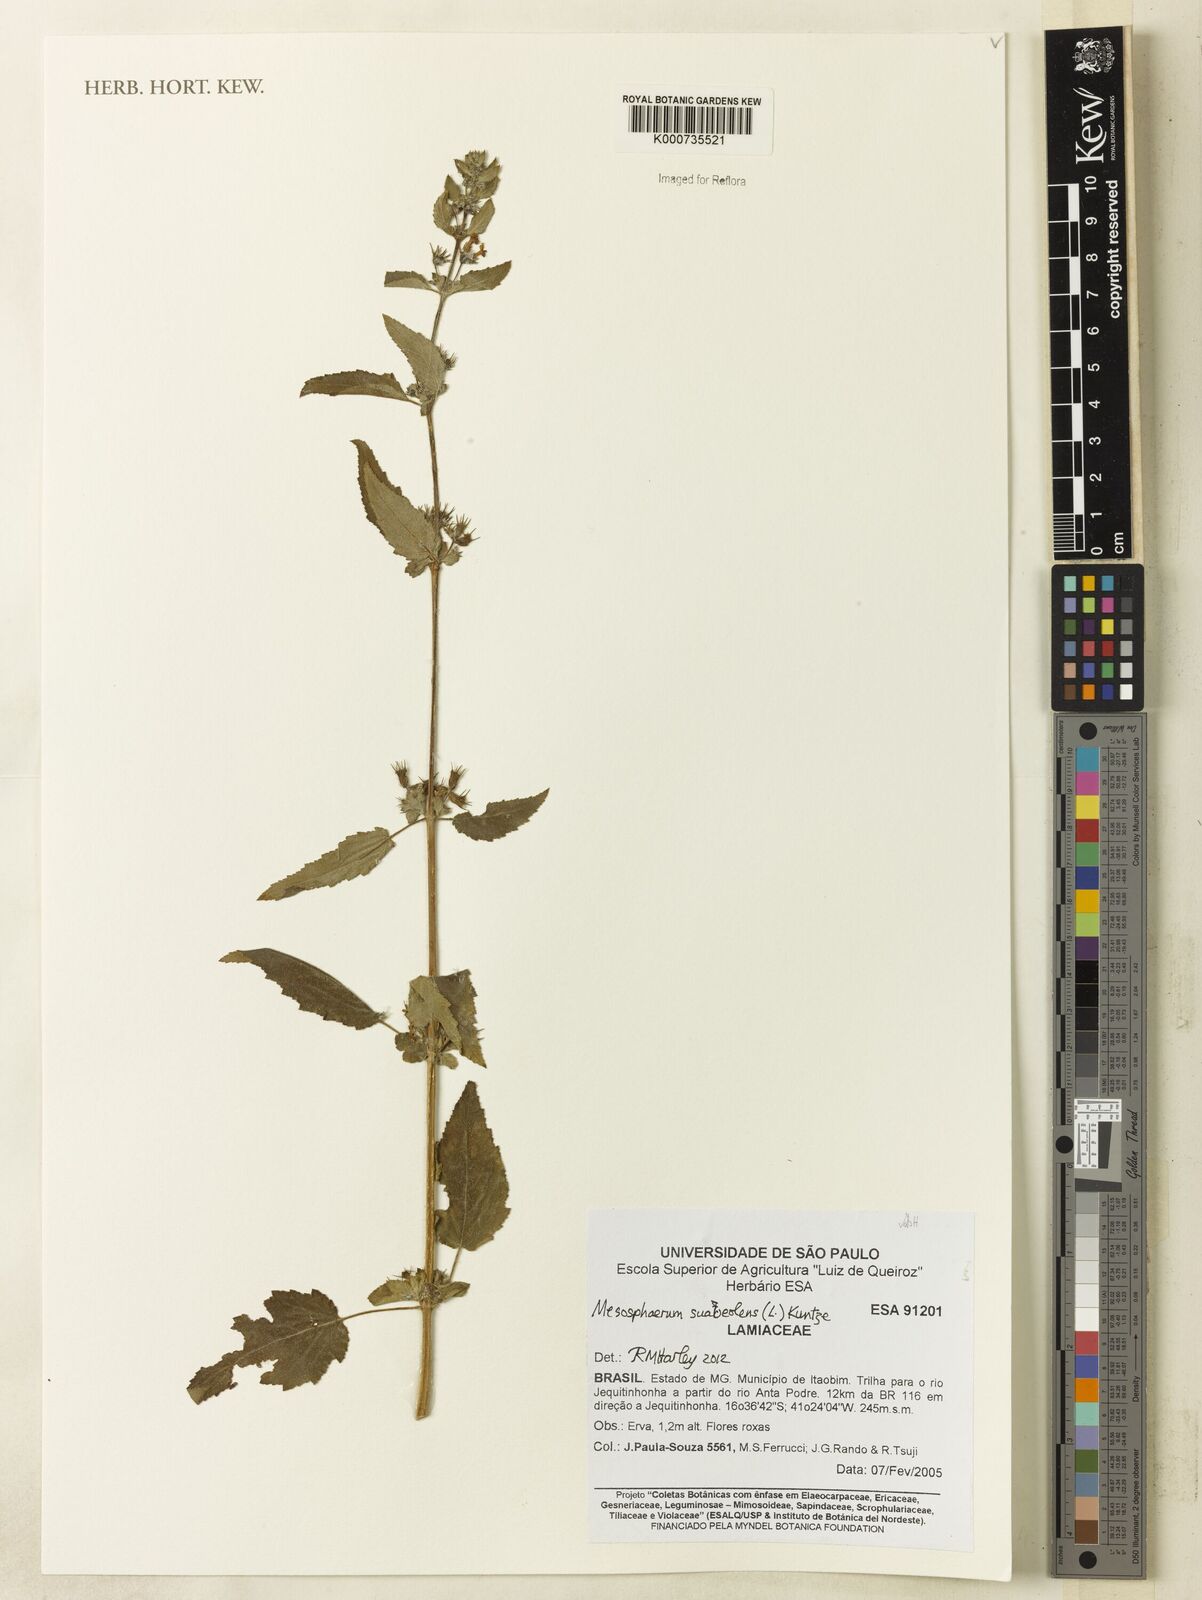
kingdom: Plantae
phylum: Tracheophyta
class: Magnoliopsida
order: Lamiales
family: Lamiaceae
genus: Mesosphaerum
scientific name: Mesosphaerum suaveolens
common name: Pignut
